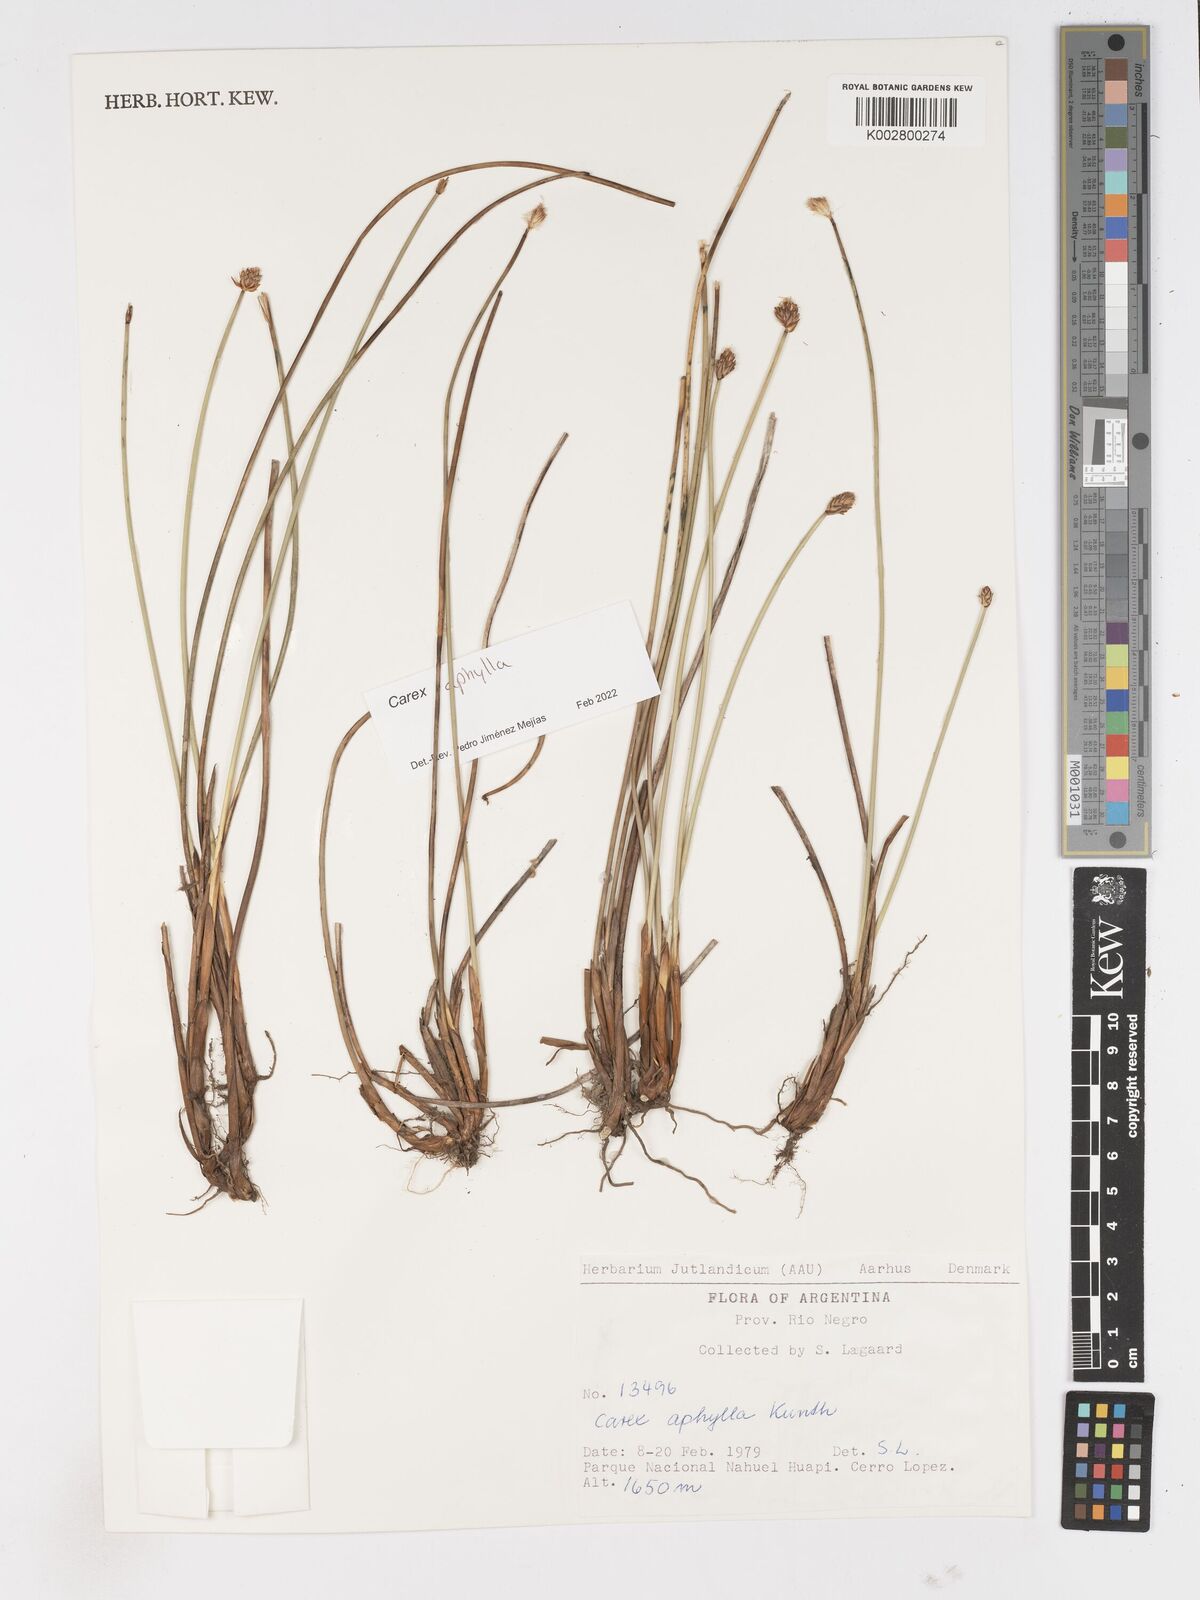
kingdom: Plantae
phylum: Tracheophyta
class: Liliopsida
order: Poales
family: Cyperaceae
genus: Carex
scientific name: Carex aphylla
